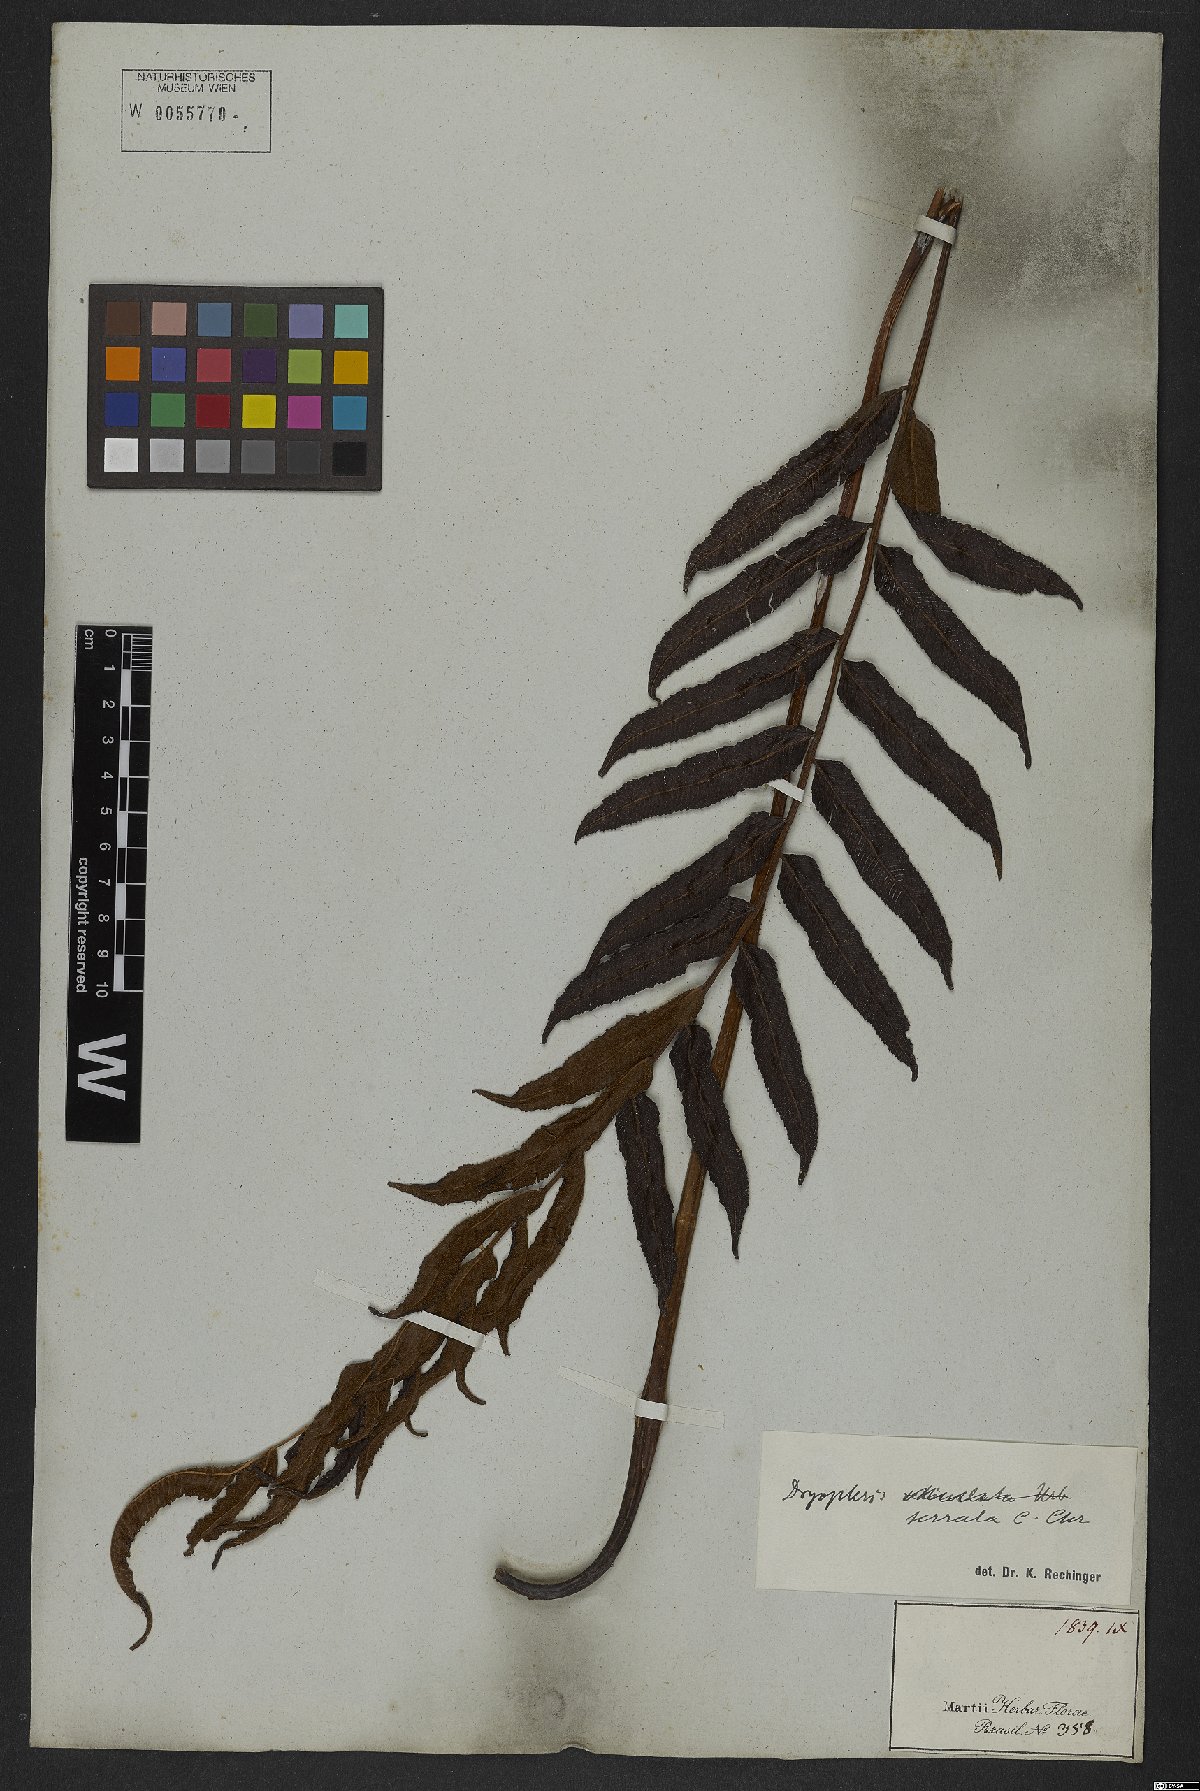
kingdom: Plantae
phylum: Tracheophyta
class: Polypodiopsida
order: Polypodiales
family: Thelypteridaceae
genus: Meniscium
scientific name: Meniscium serratum
